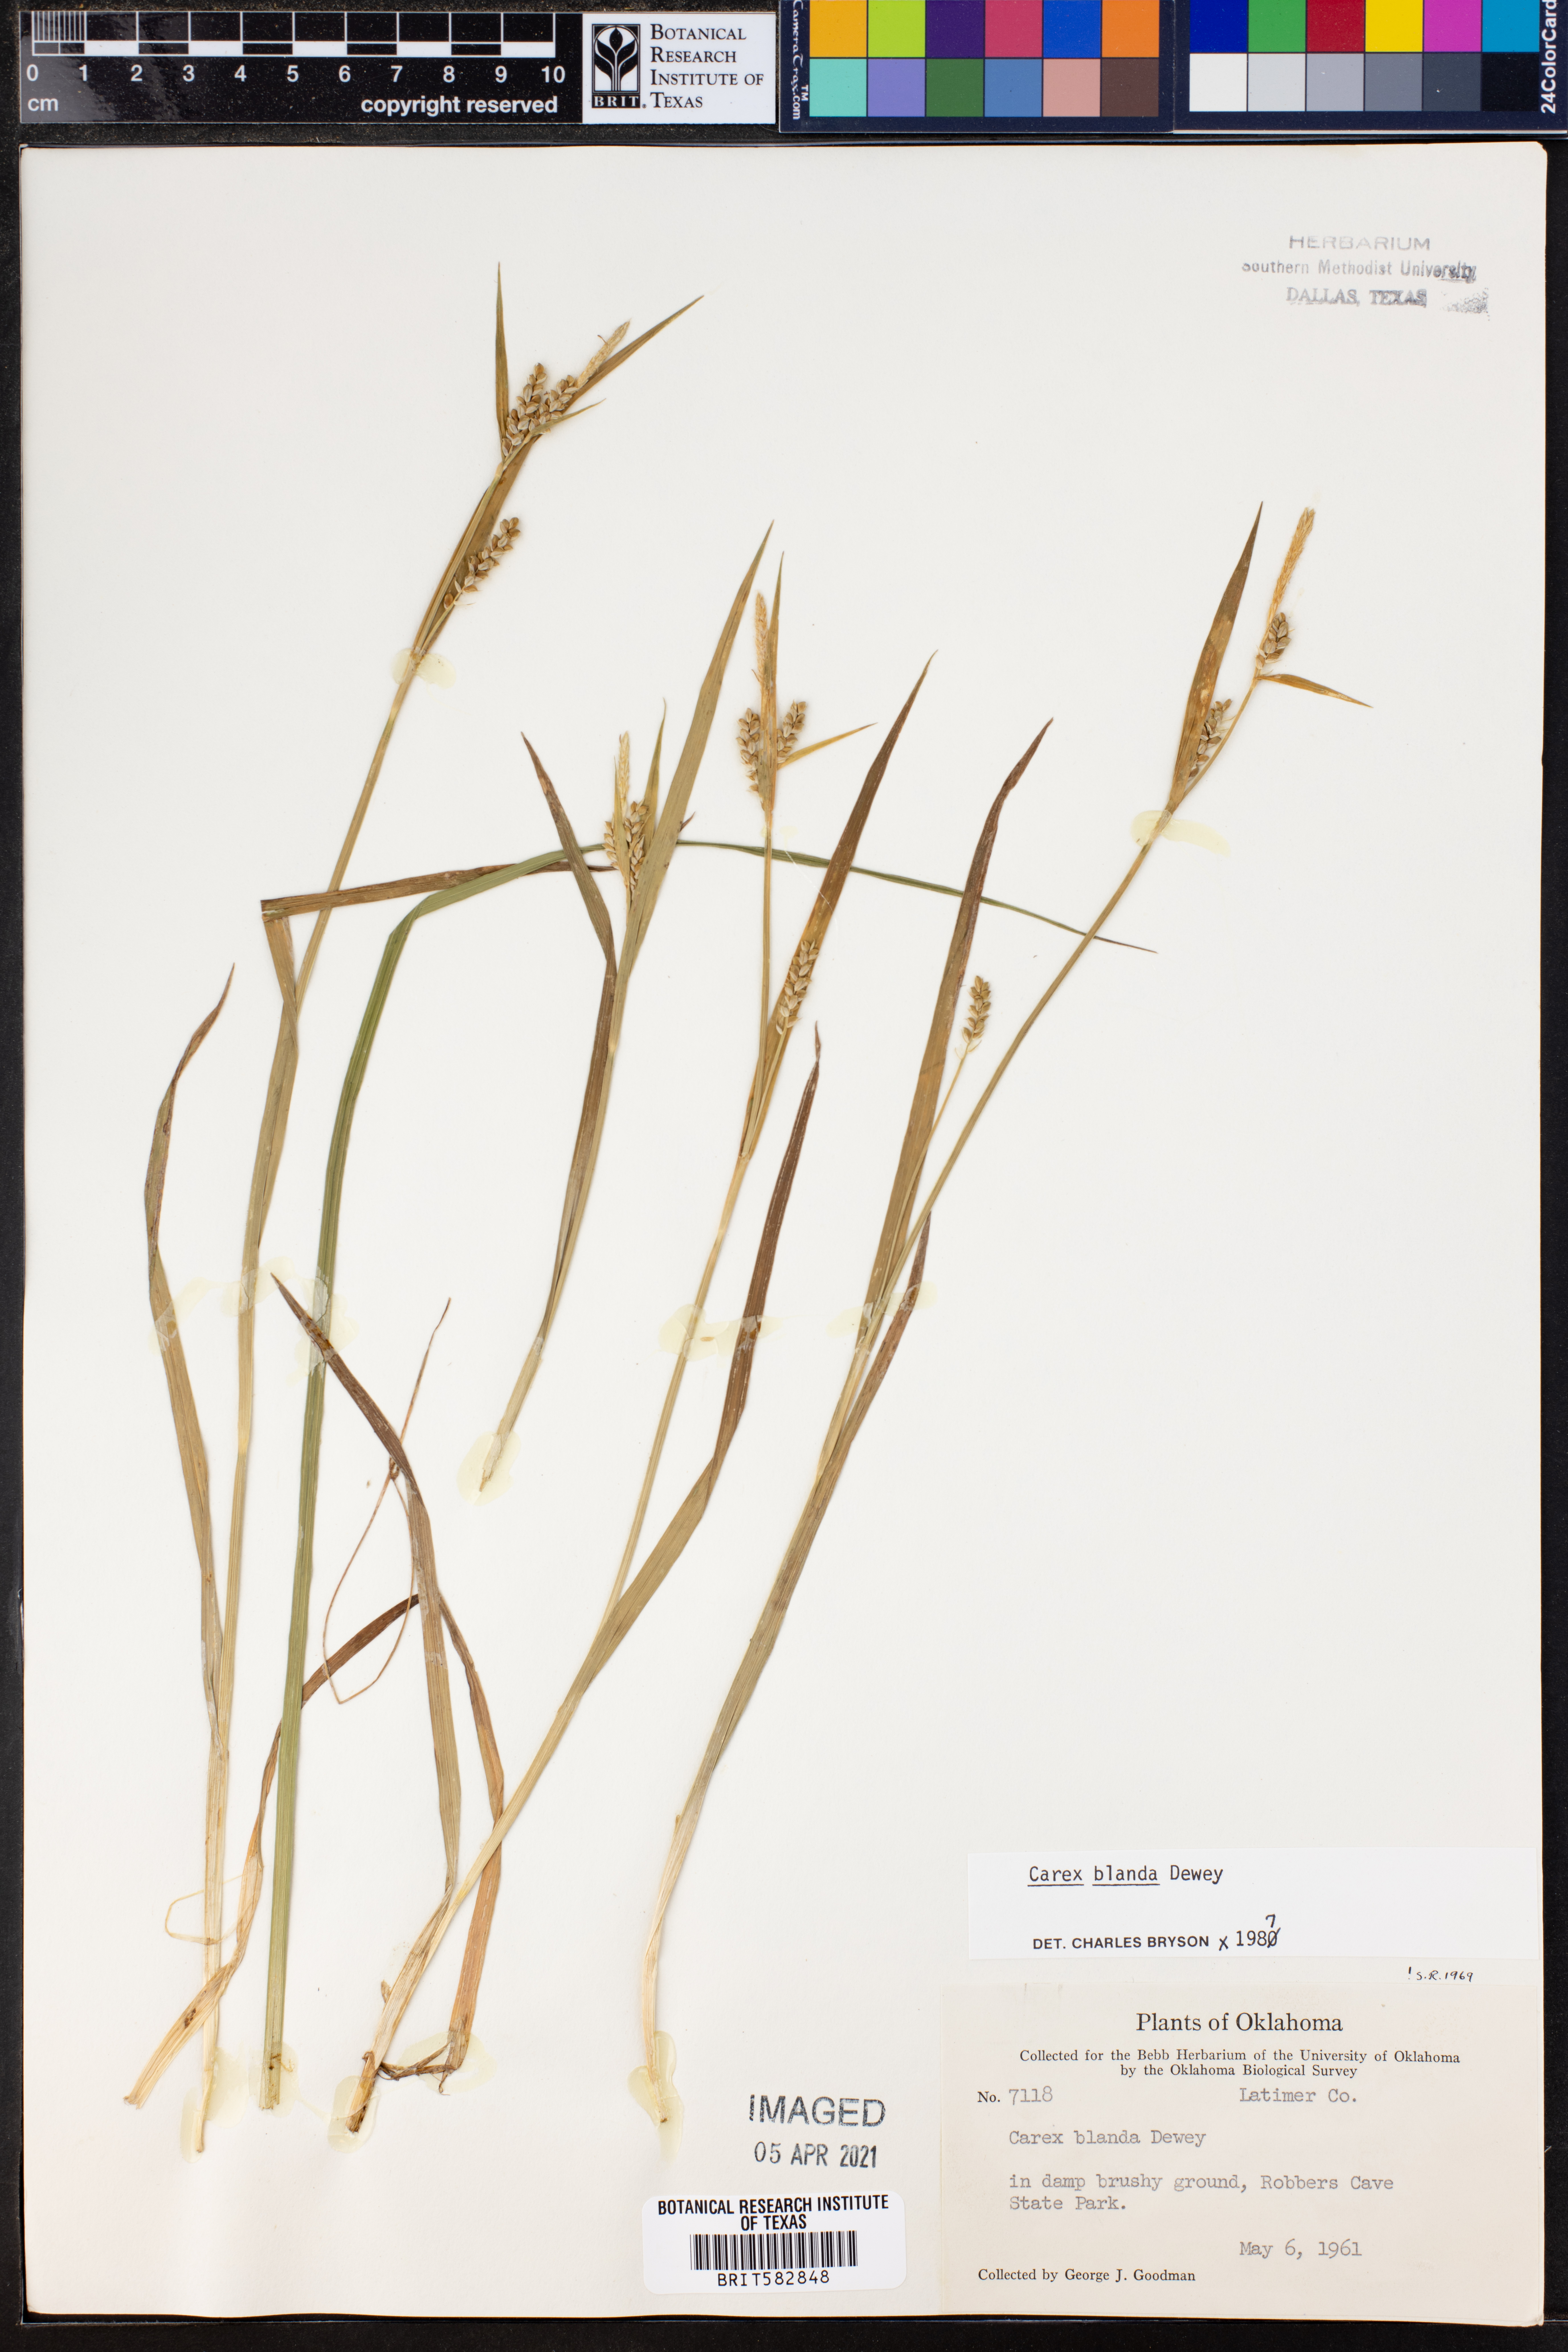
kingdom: Plantae
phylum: Tracheophyta
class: Liliopsida
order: Poales
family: Cyperaceae
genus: Carex
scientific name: Carex blanda
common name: Bland sedge
